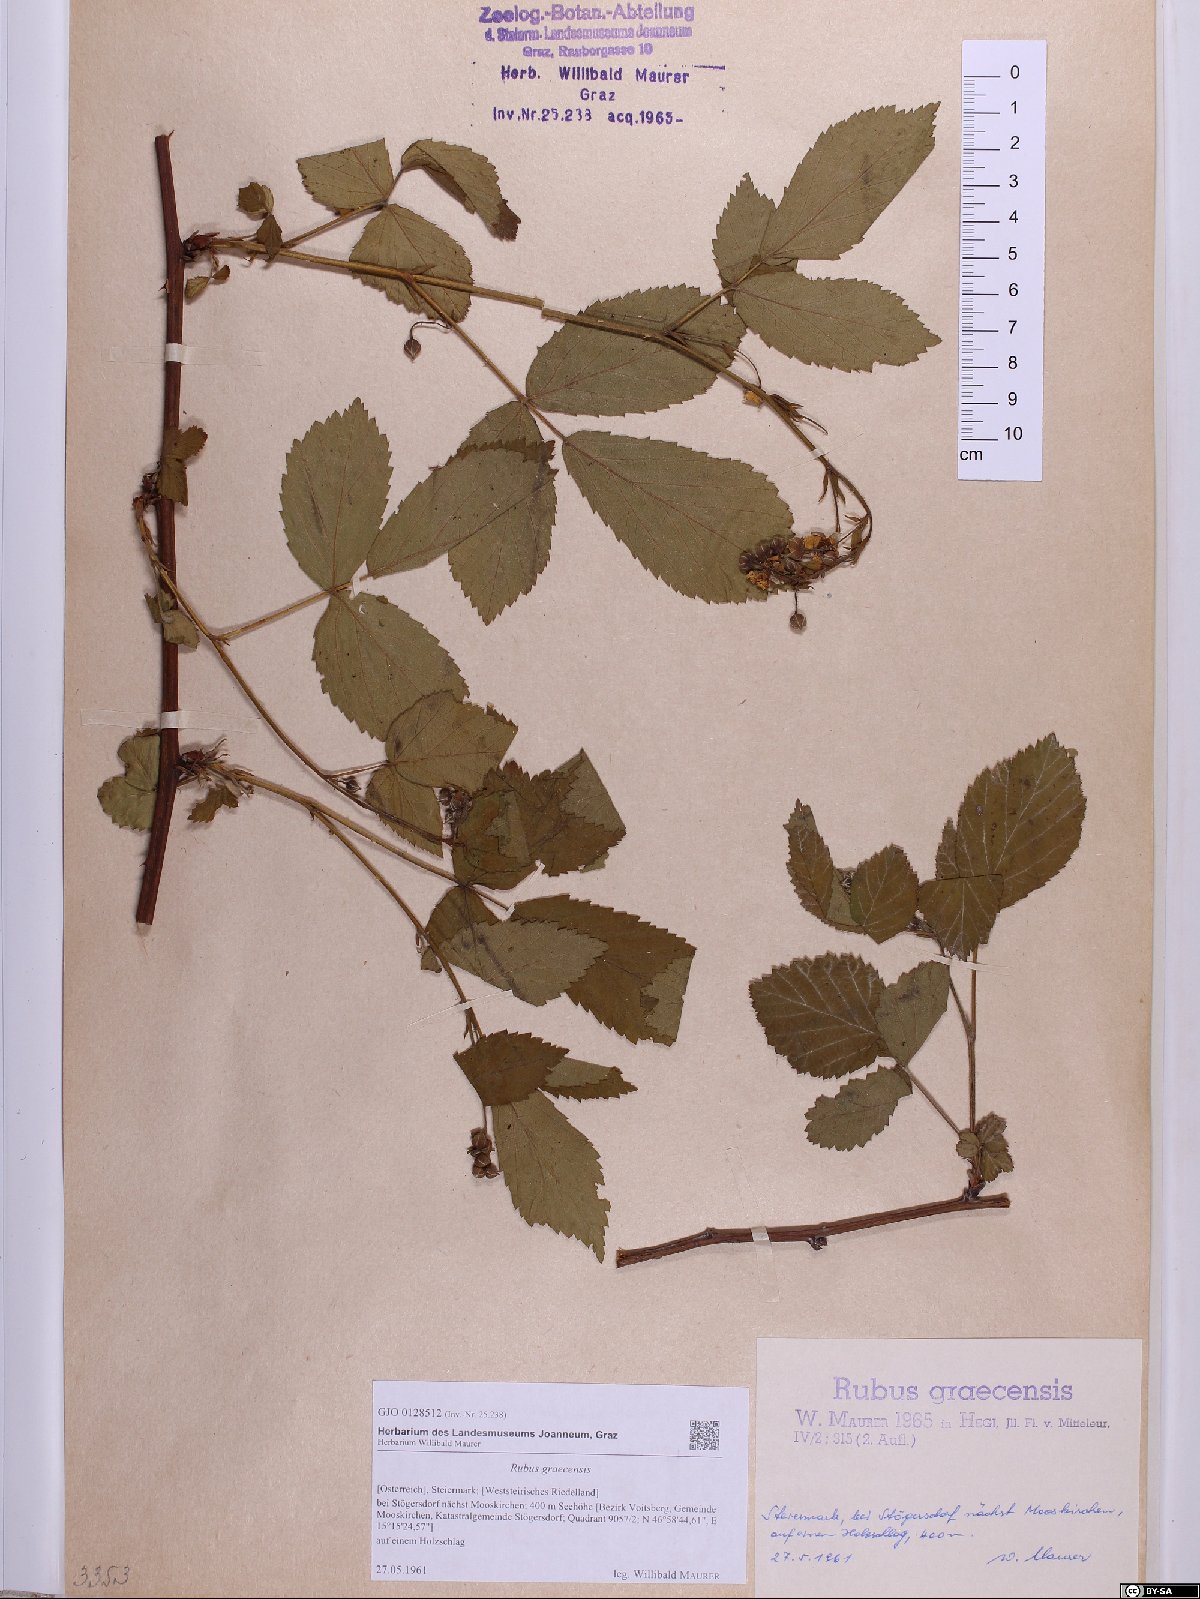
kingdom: Plantae
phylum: Tracheophyta
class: Magnoliopsida
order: Rosales
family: Rosaceae
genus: Rubus
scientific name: Rubus graecensis
